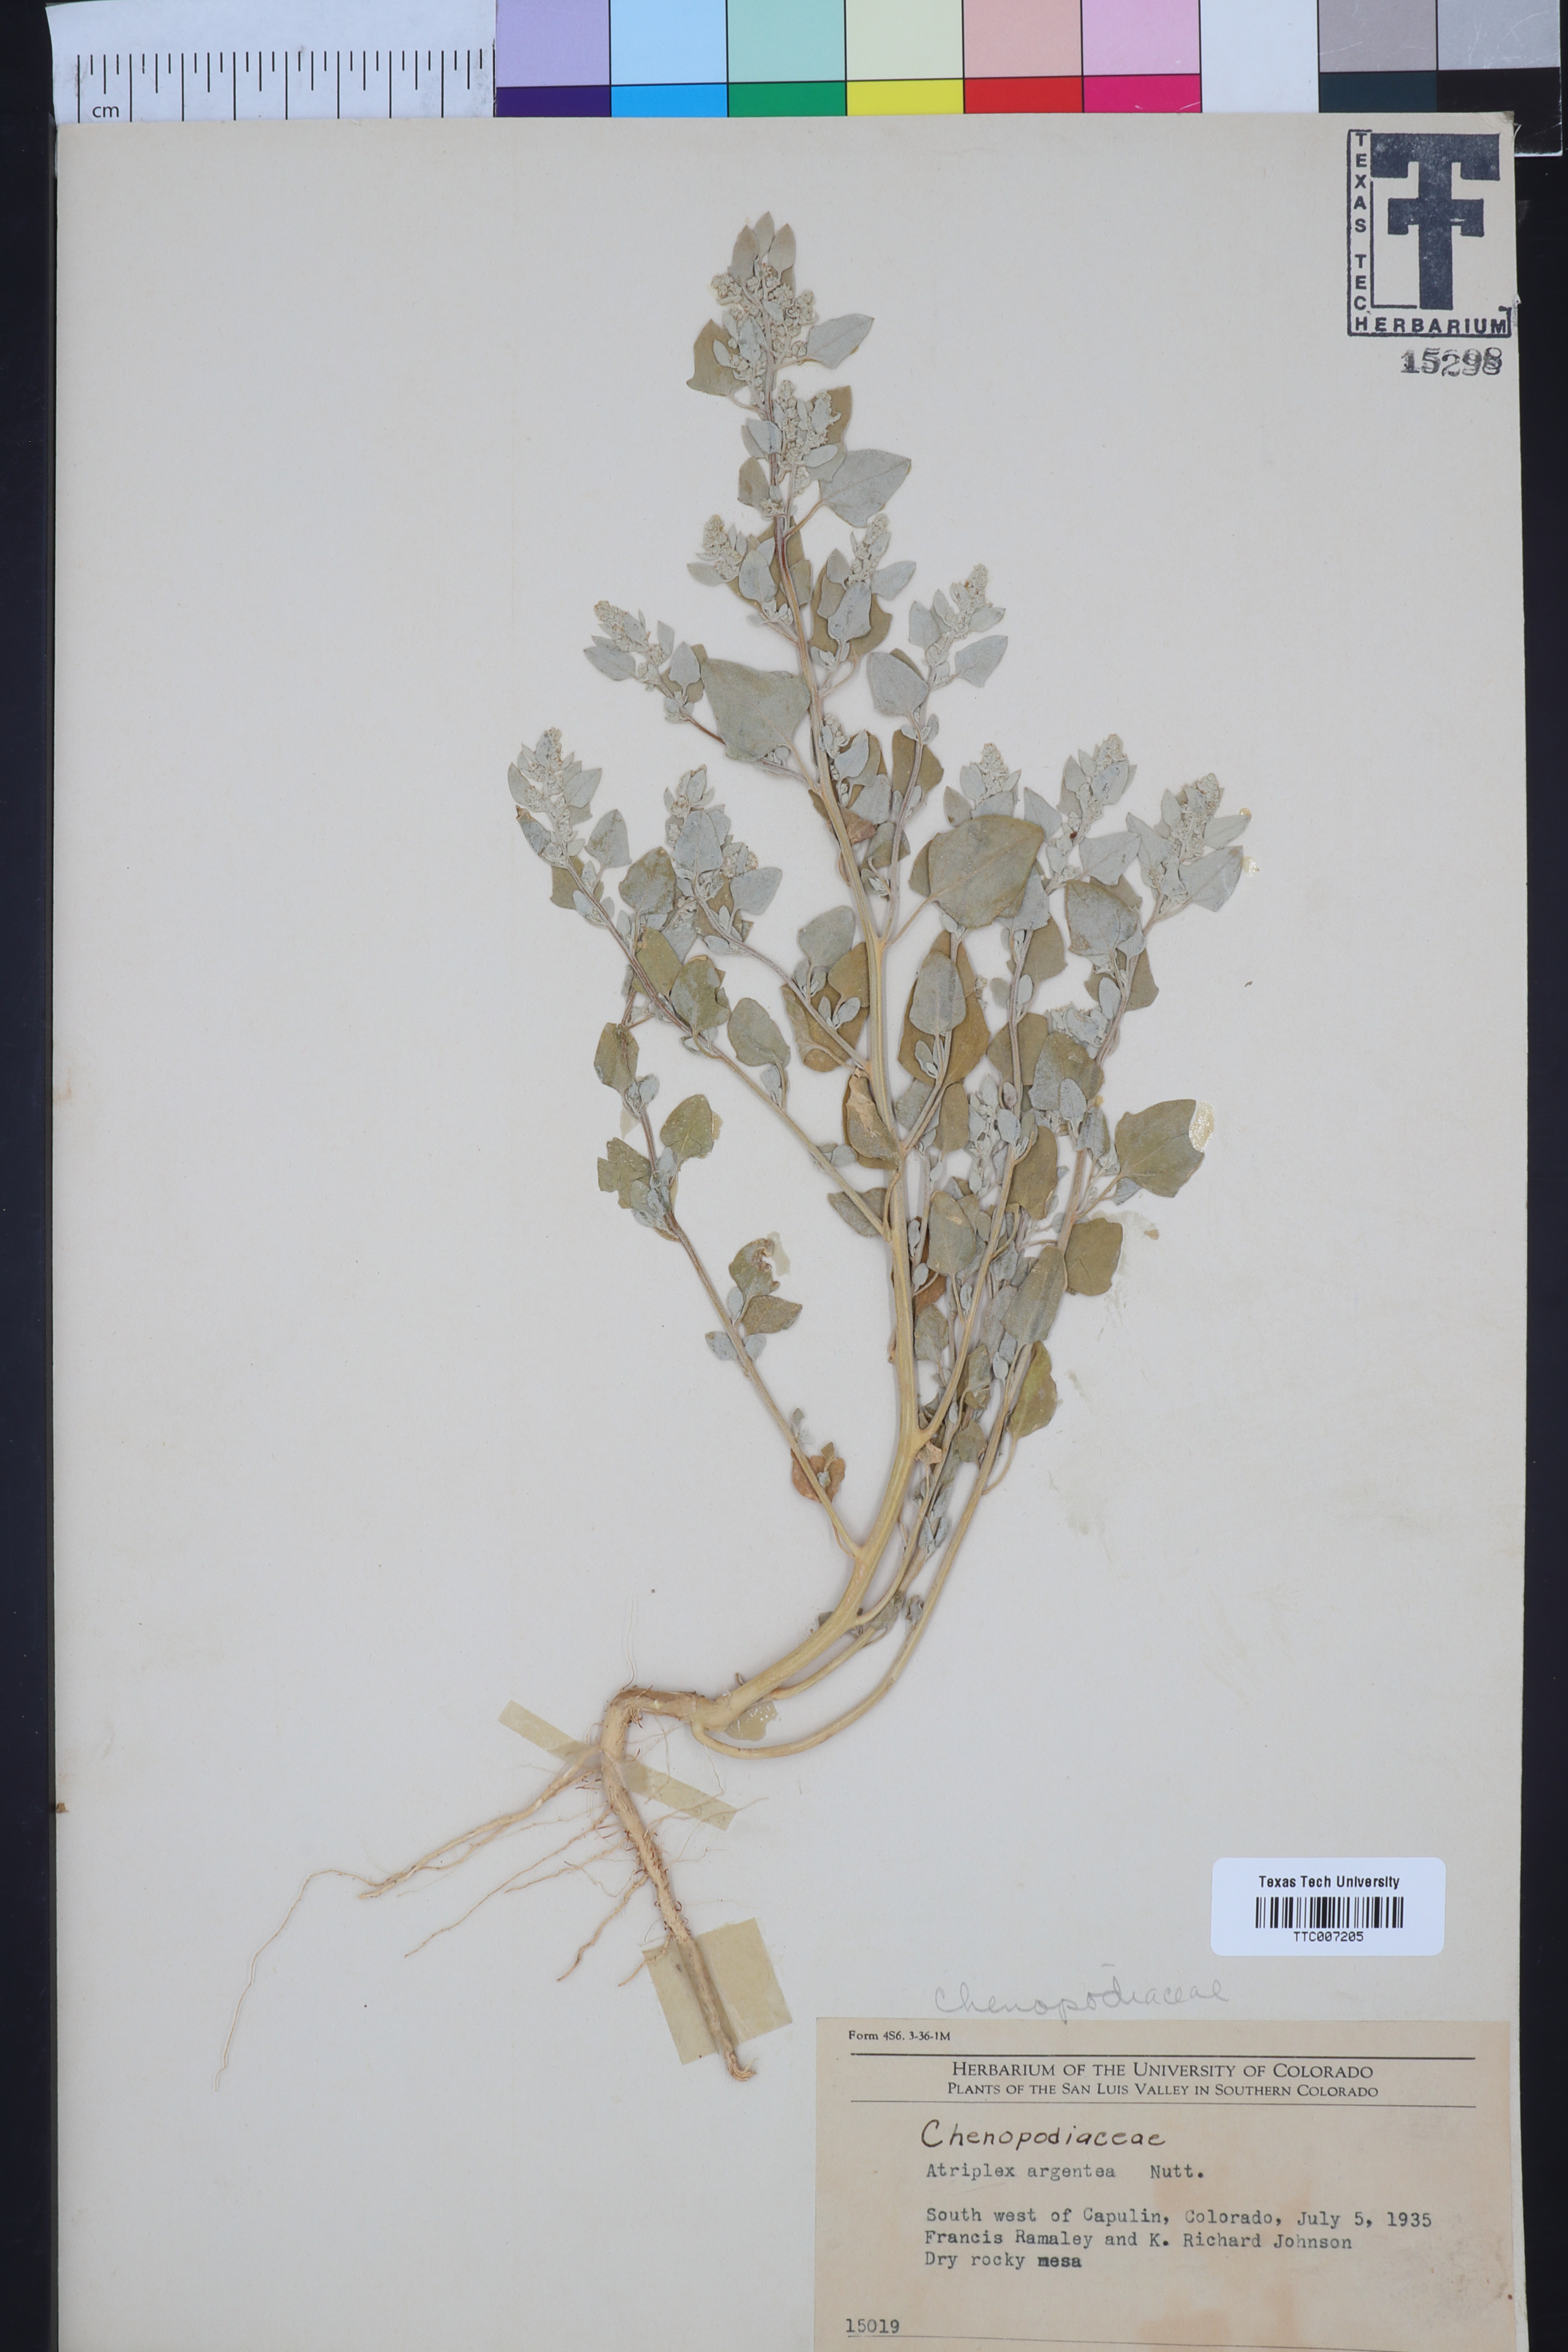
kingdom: Plantae
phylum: Tracheophyta
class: Magnoliopsida
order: Caryophyllales
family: Amaranthaceae
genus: Atriplex
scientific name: Atriplex argentea
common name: Silverscale
